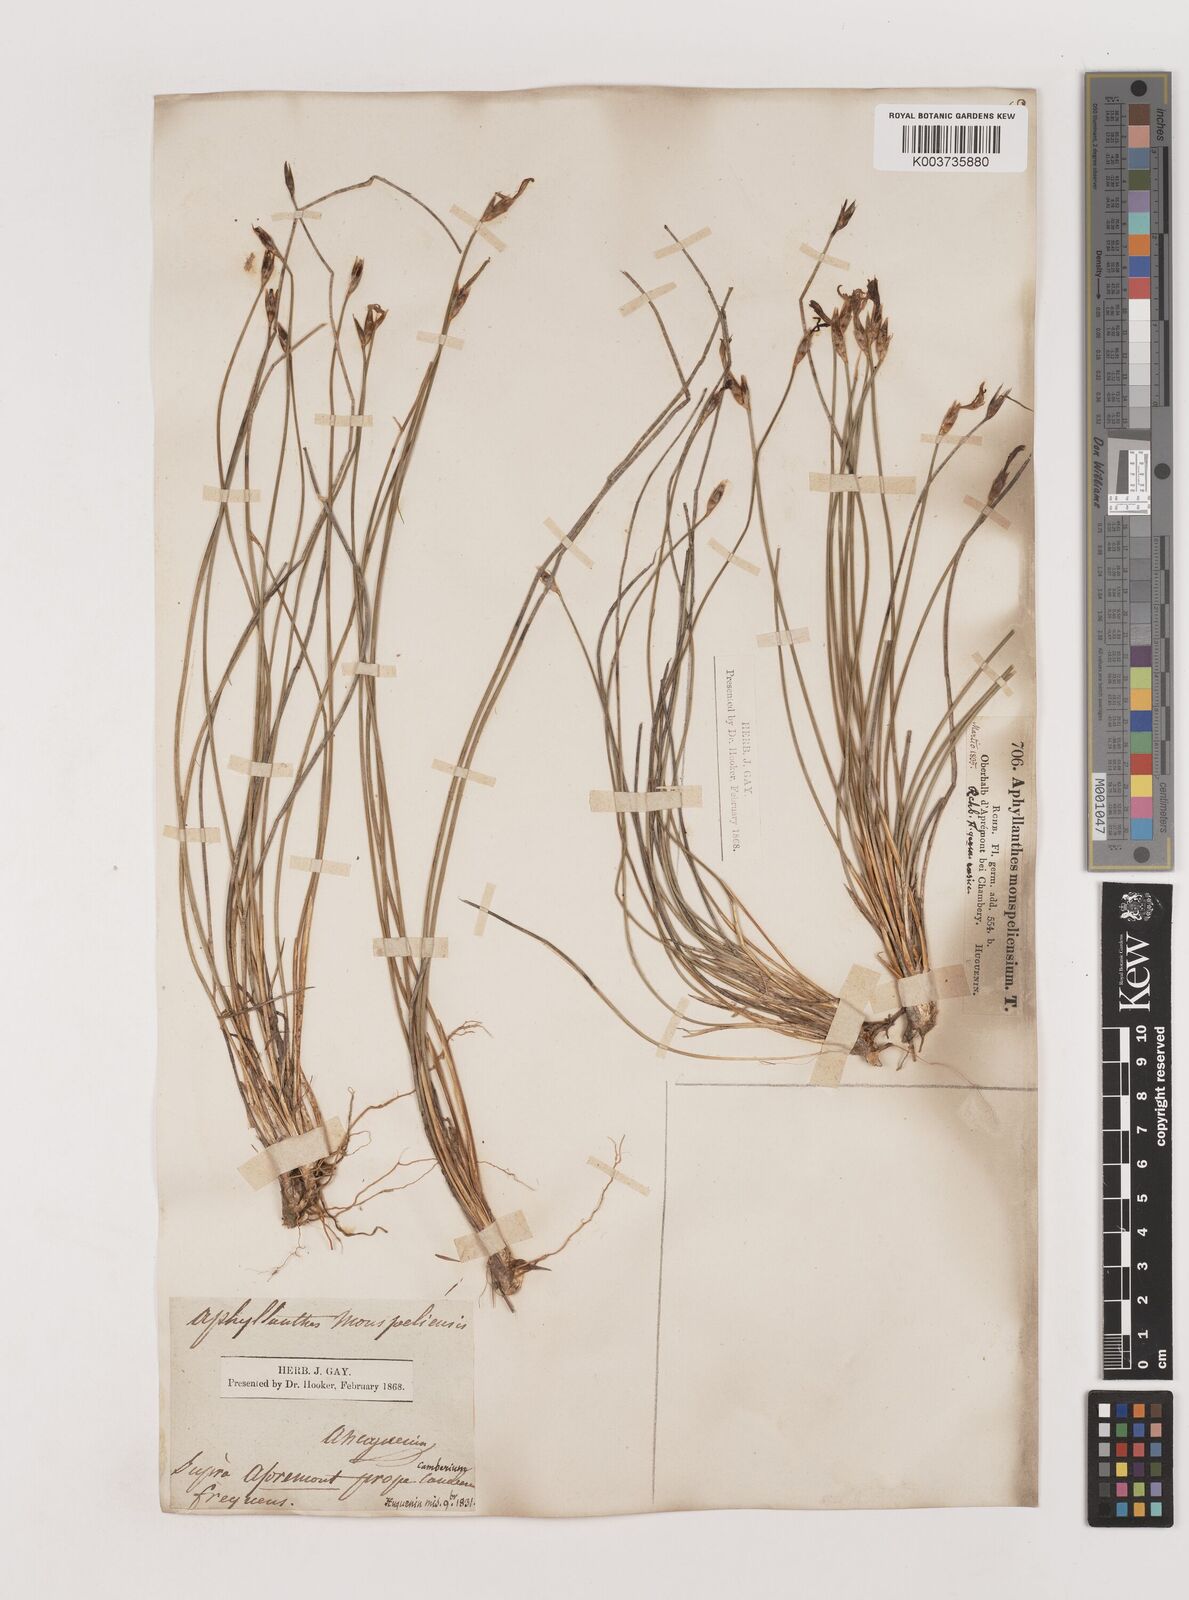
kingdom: Plantae
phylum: Tracheophyta
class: Liliopsida
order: Asparagales
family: Asparagaceae
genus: Aphyllanthes
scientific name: Aphyllanthes monspeliensis
